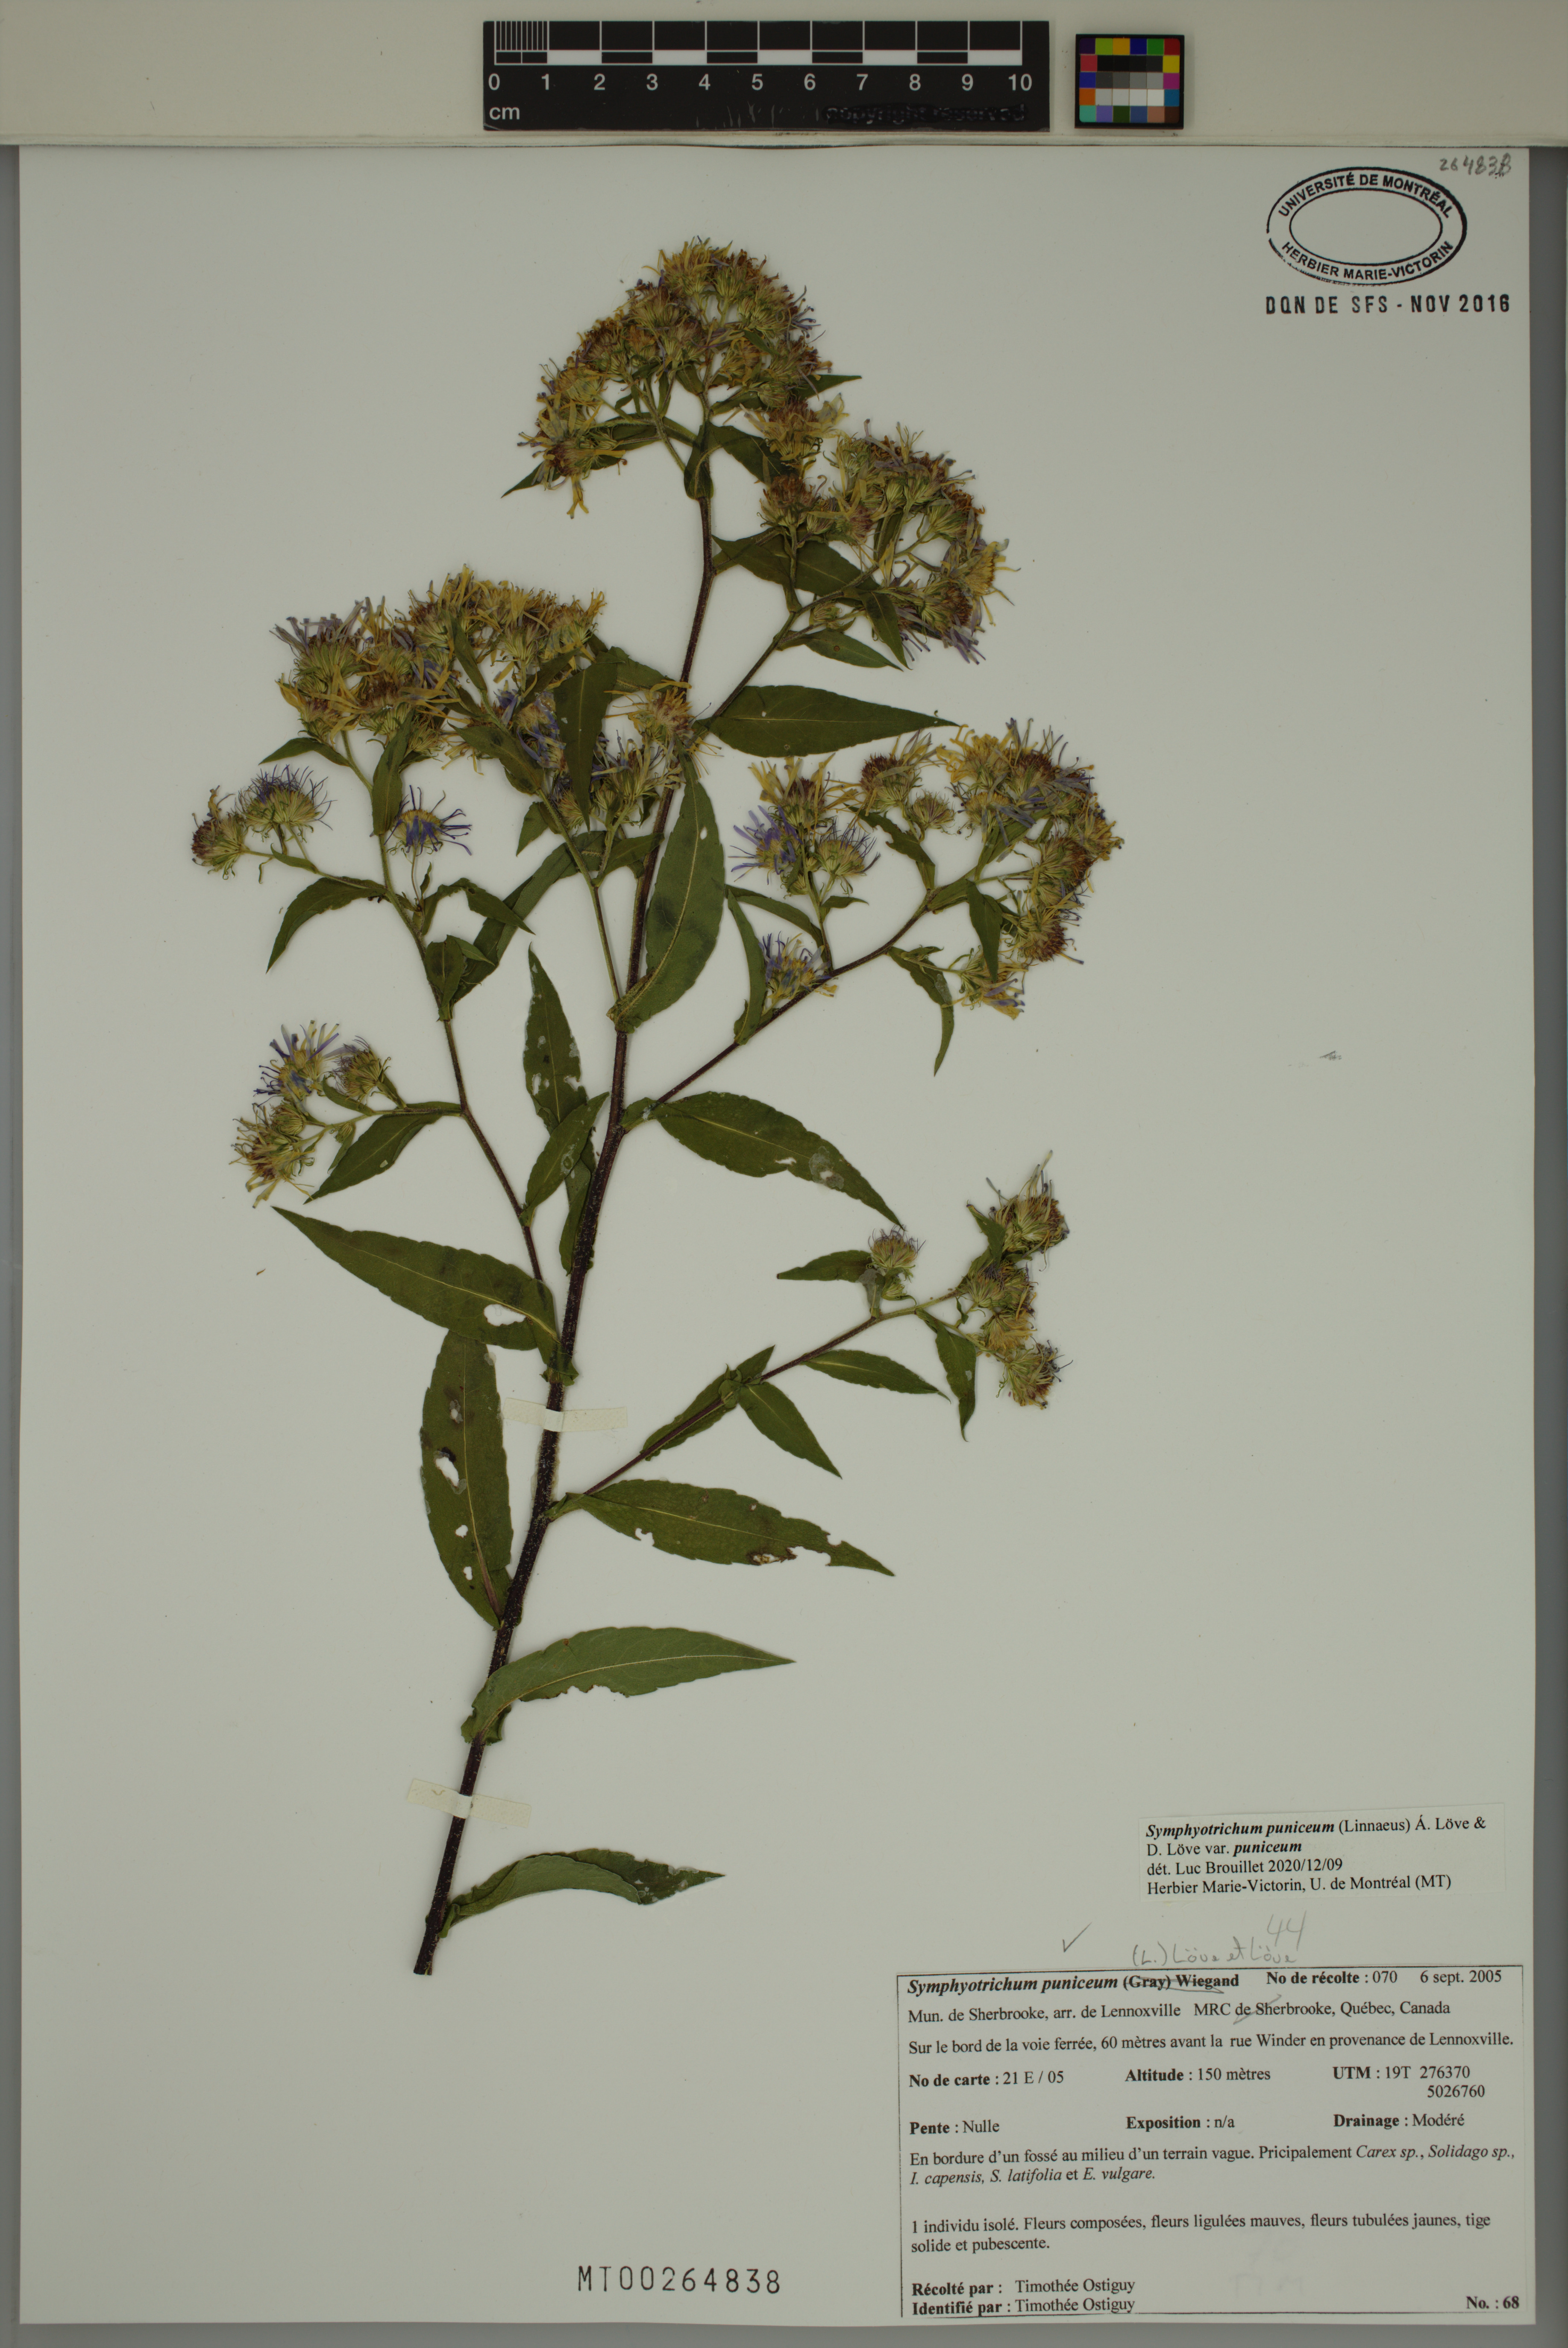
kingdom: Plantae
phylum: Tracheophyta
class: Magnoliopsida
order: Asterales
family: Asteraceae
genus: Symphyotrichum
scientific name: Symphyotrichum puniceum
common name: Bog aster
